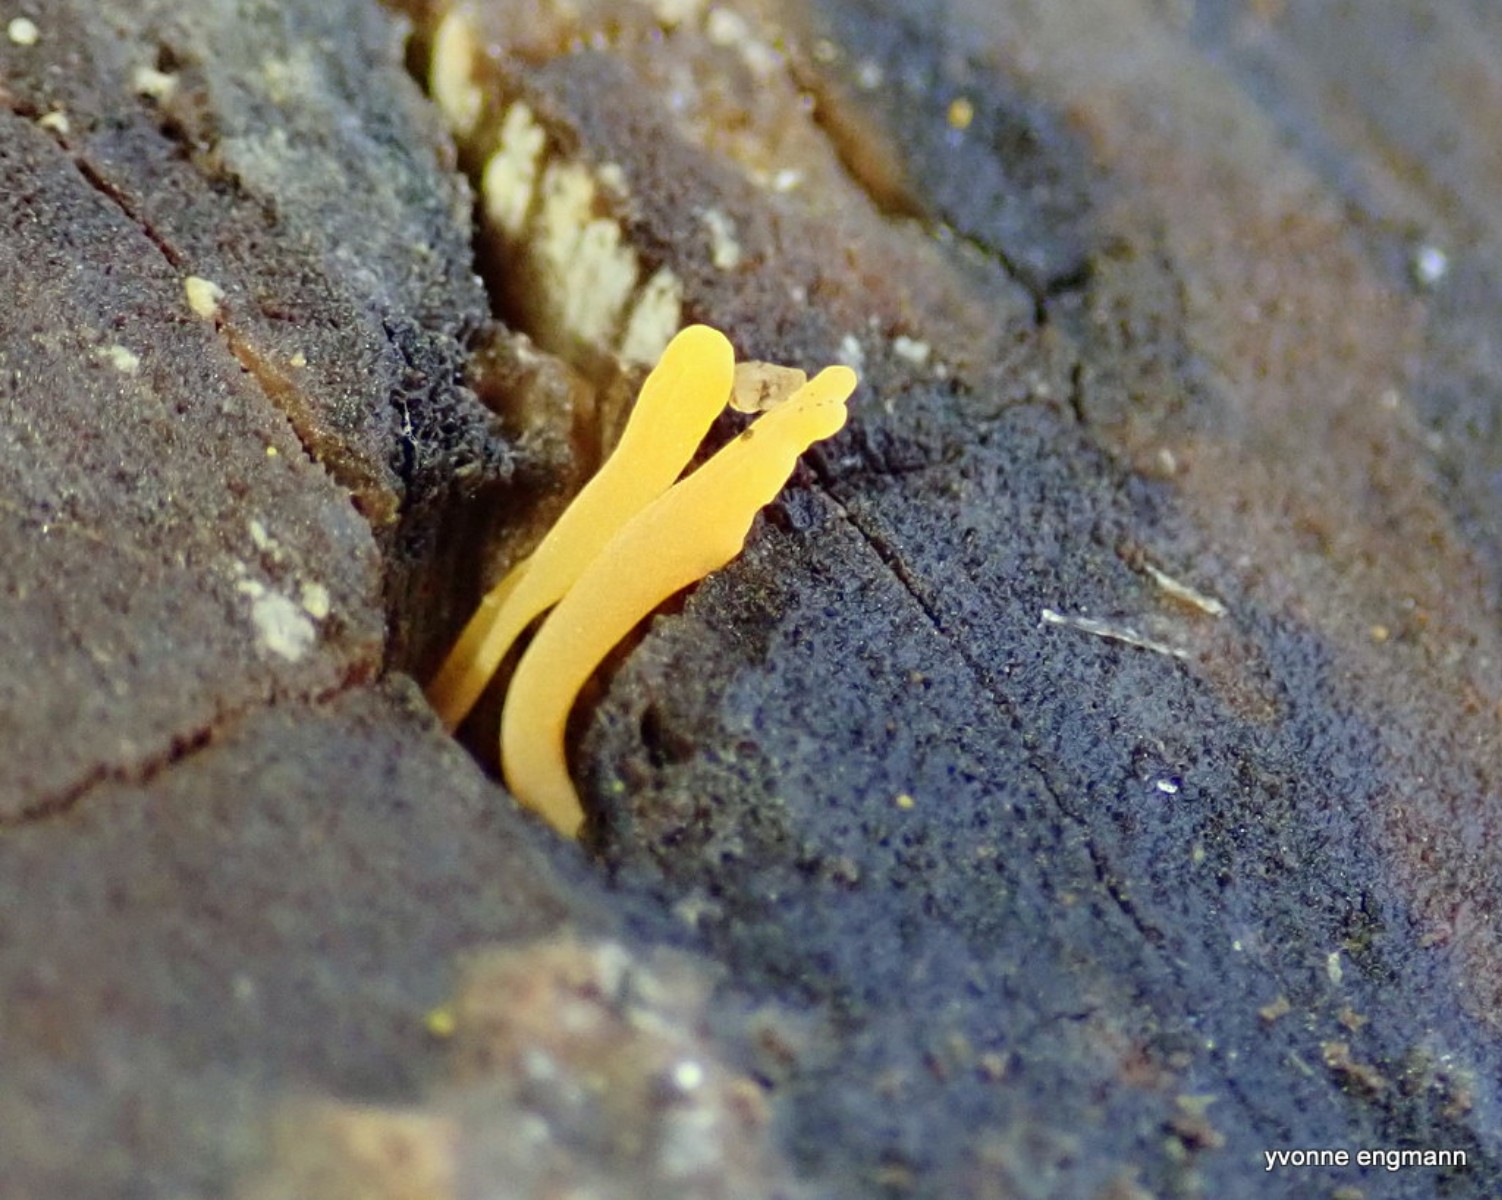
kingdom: Fungi
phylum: Basidiomycota
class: Dacrymycetes
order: Dacrymycetales
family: Dacrymycetaceae
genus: Calocera
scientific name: Calocera cornea
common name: liden guldgaffel
